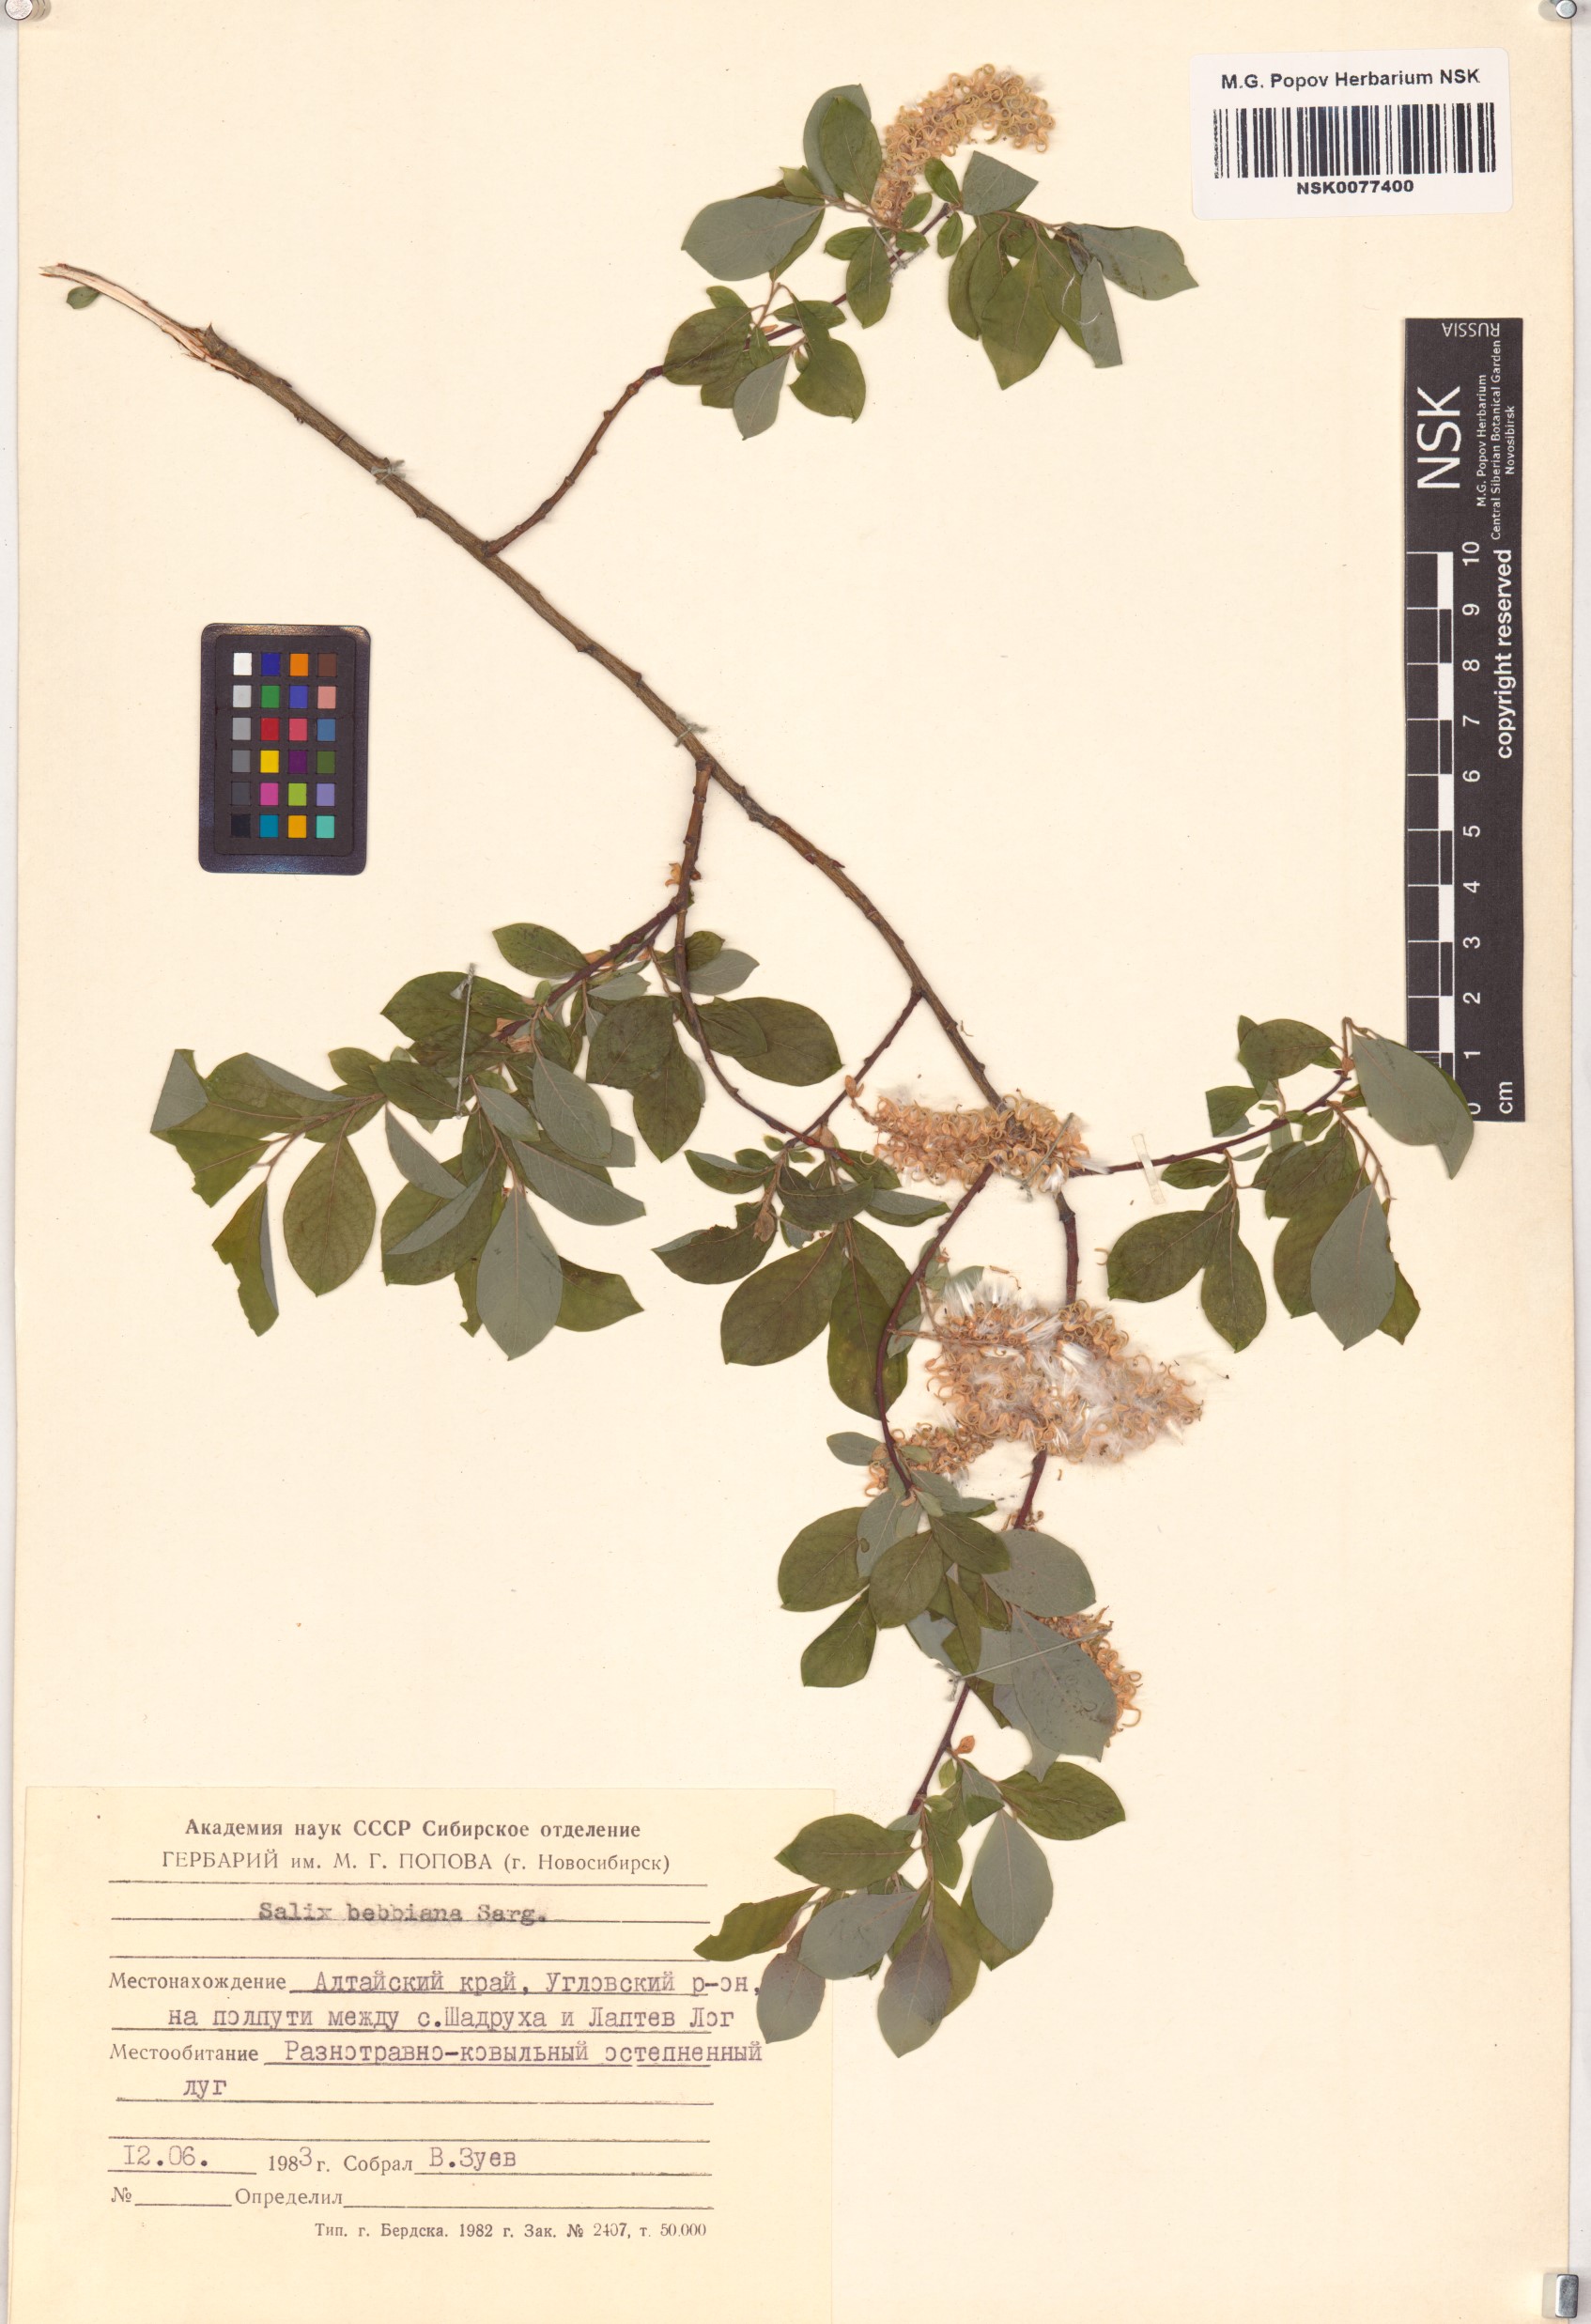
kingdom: Plantae
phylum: Tracheophyta
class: Magnoliopsida
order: Malpighiales
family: Salicaceae
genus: Salix
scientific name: Salix bebbiana
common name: Bebb's willow
